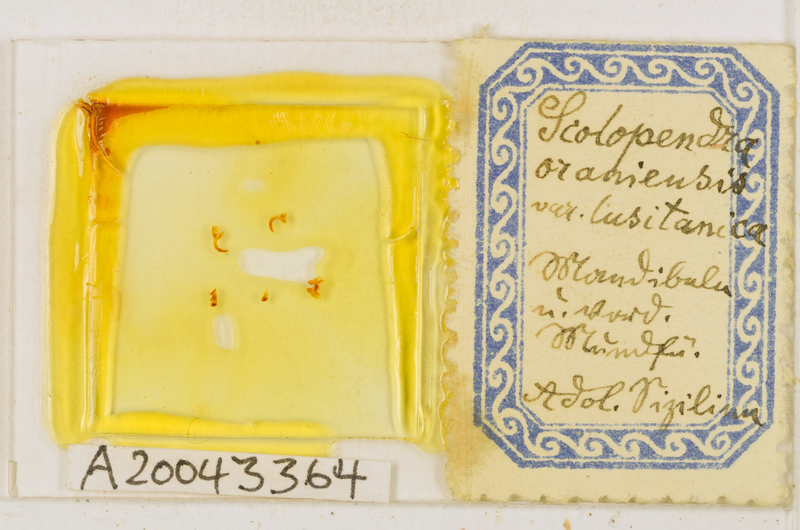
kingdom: Animalia
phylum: Arthropoda
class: Chilopoda
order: Scolopendromorpha
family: Scolopendridae
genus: Scolopendra
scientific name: Scolopendra oraniensis
